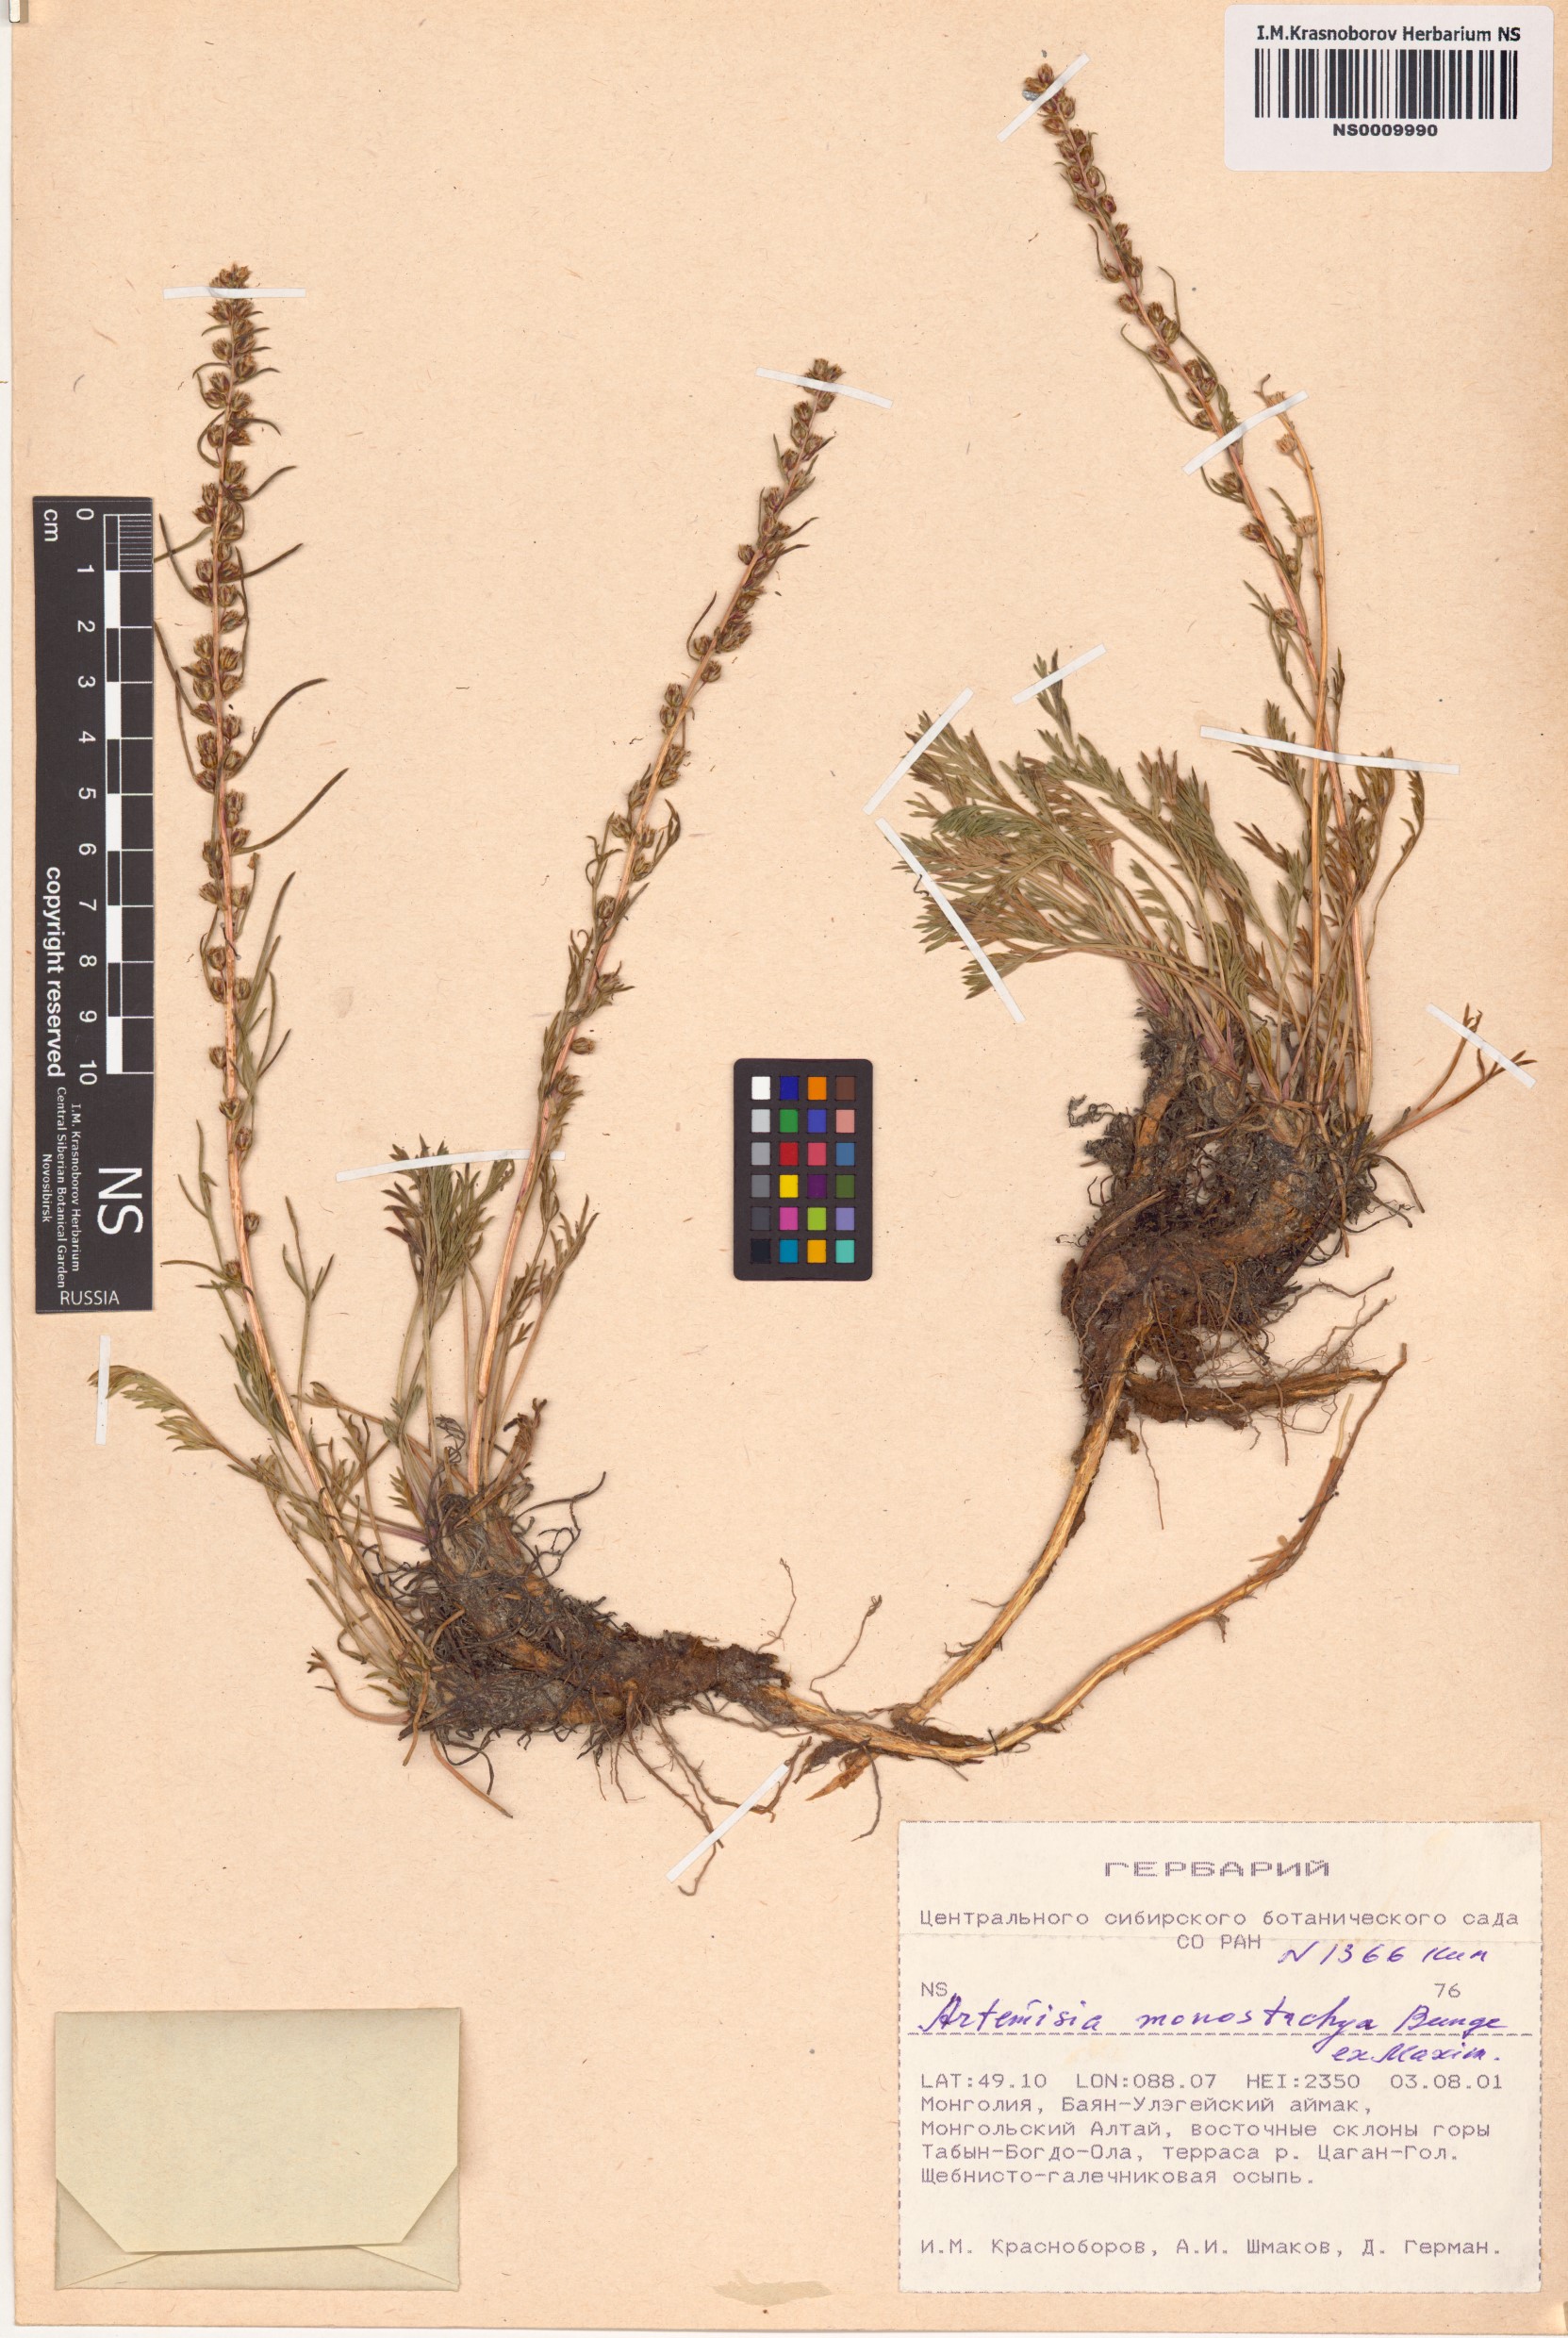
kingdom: Plantae
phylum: Tracheophyta
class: Magnoliopsida
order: Asterales
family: Asteraceae
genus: Artemisia
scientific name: Artemisia pubescens
